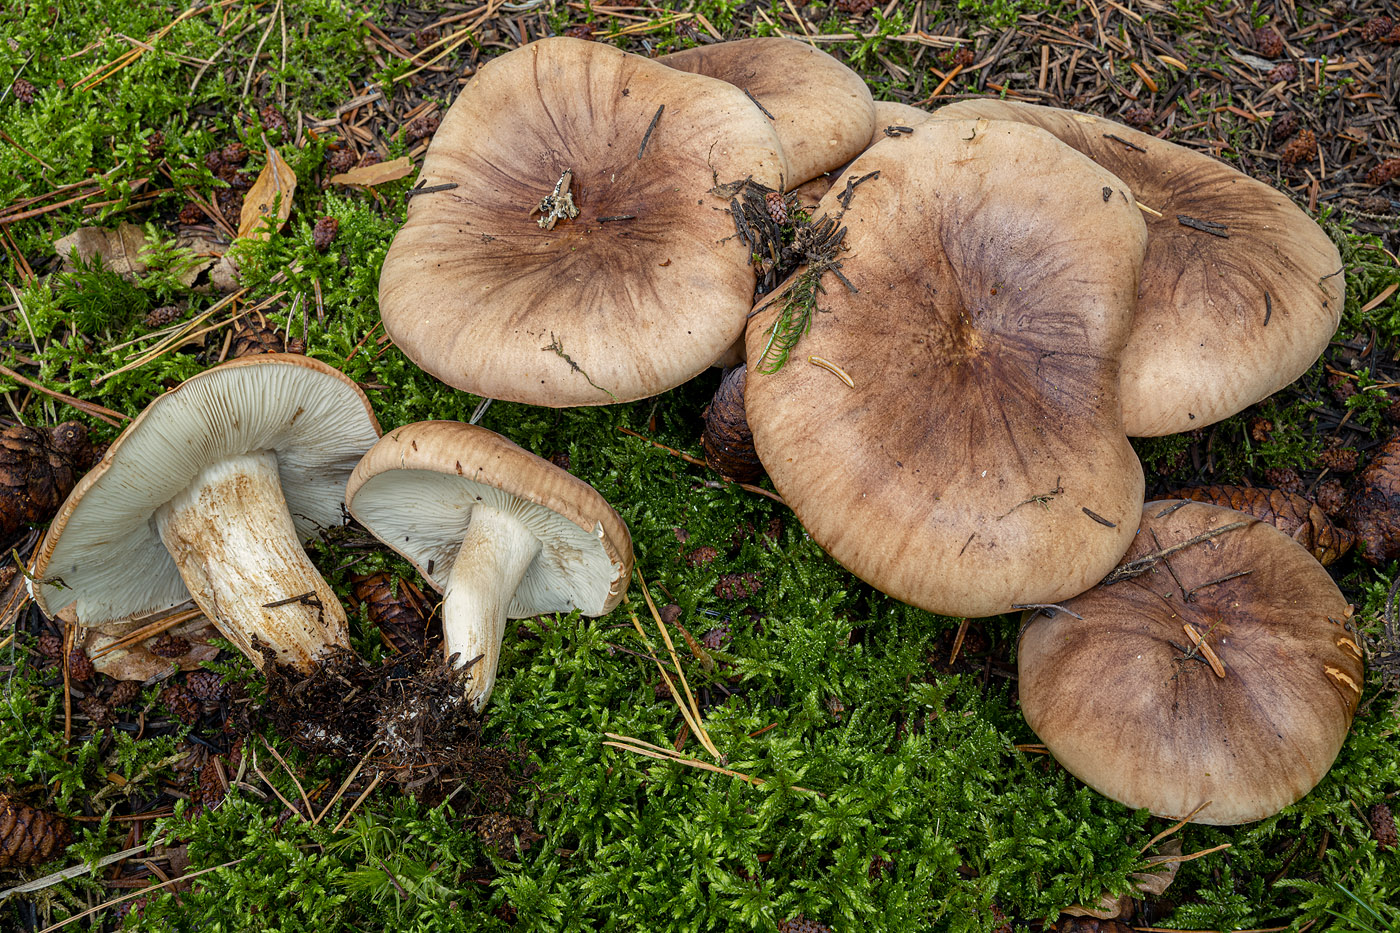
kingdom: Fungi
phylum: Basidiomycota
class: Agaricomycetes
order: Agaricales
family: Tricholomataceae
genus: Tricholoma
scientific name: Tricholoma stans
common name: stolt ridderhat
